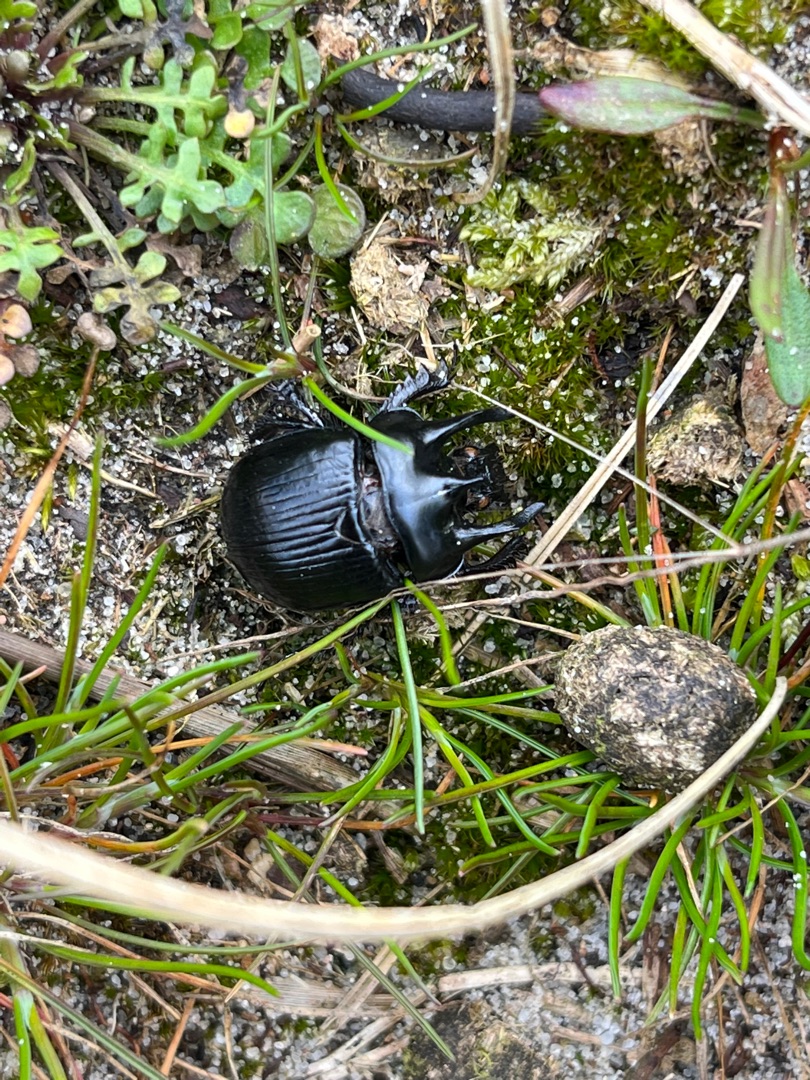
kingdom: Animalia
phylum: Arthropoda
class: Insecta
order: Coleoptera
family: Geotrupidae
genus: Typhaeus
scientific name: Typhaeus typhoeus
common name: Trehornet skarnbasse
